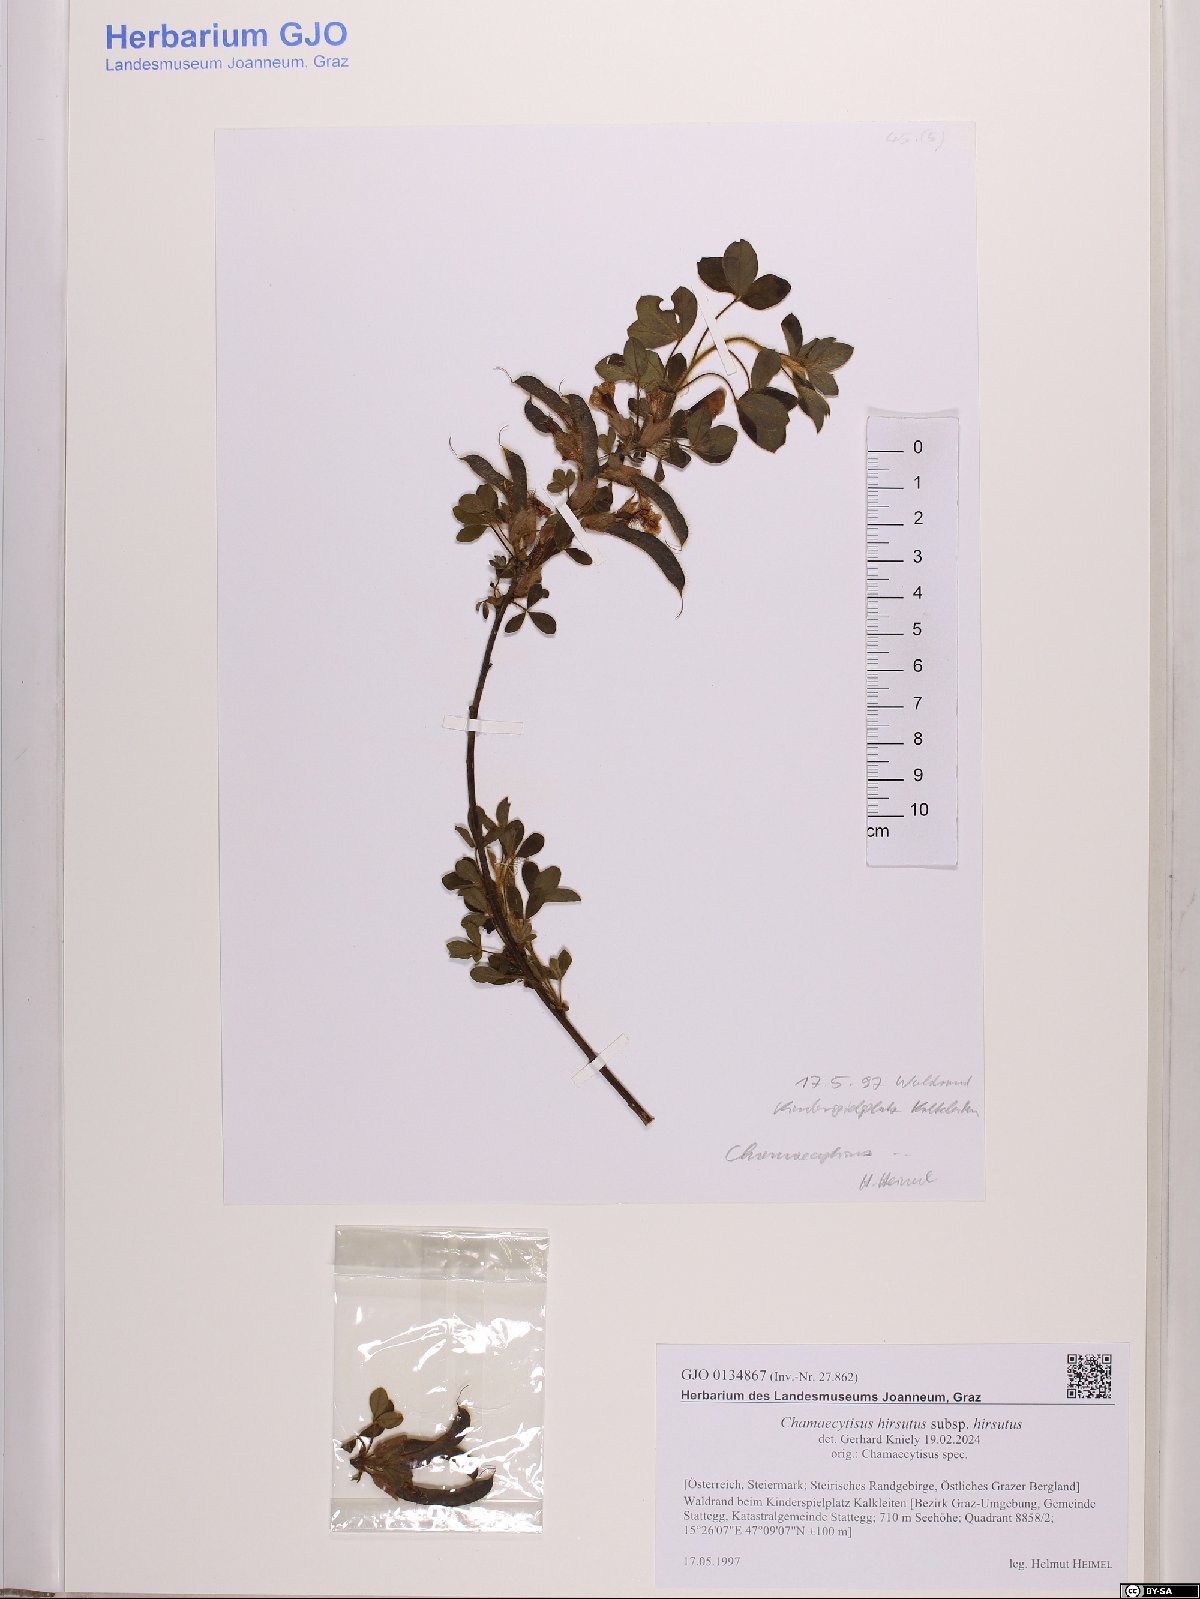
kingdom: Plantae
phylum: Tracheophyta
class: Magnoliopsida
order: Fabales
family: Fabaceae
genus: Chamaecytisus
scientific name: Chamaecytisus hirsutus
